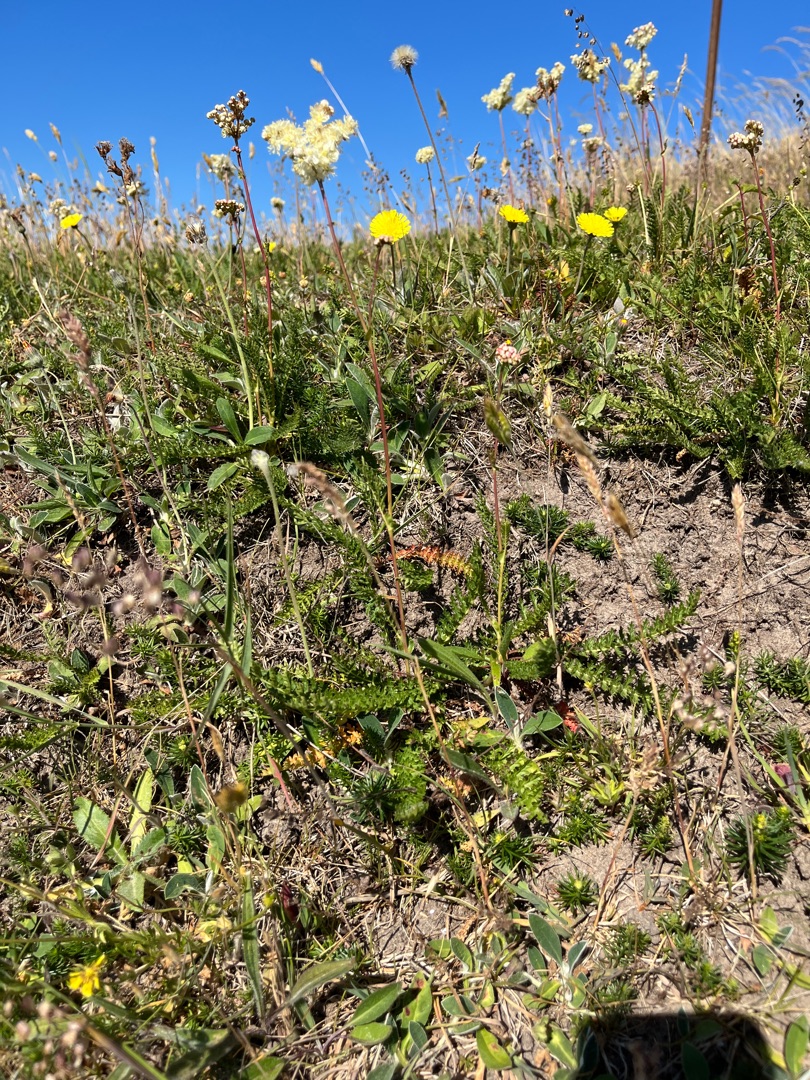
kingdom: Plantae
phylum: Tracheophyta
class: Magnoliopsida
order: Rosales
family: Rosaceae
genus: Filipendula
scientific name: Filipendula vulgaris
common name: Knoldet mjødurt
